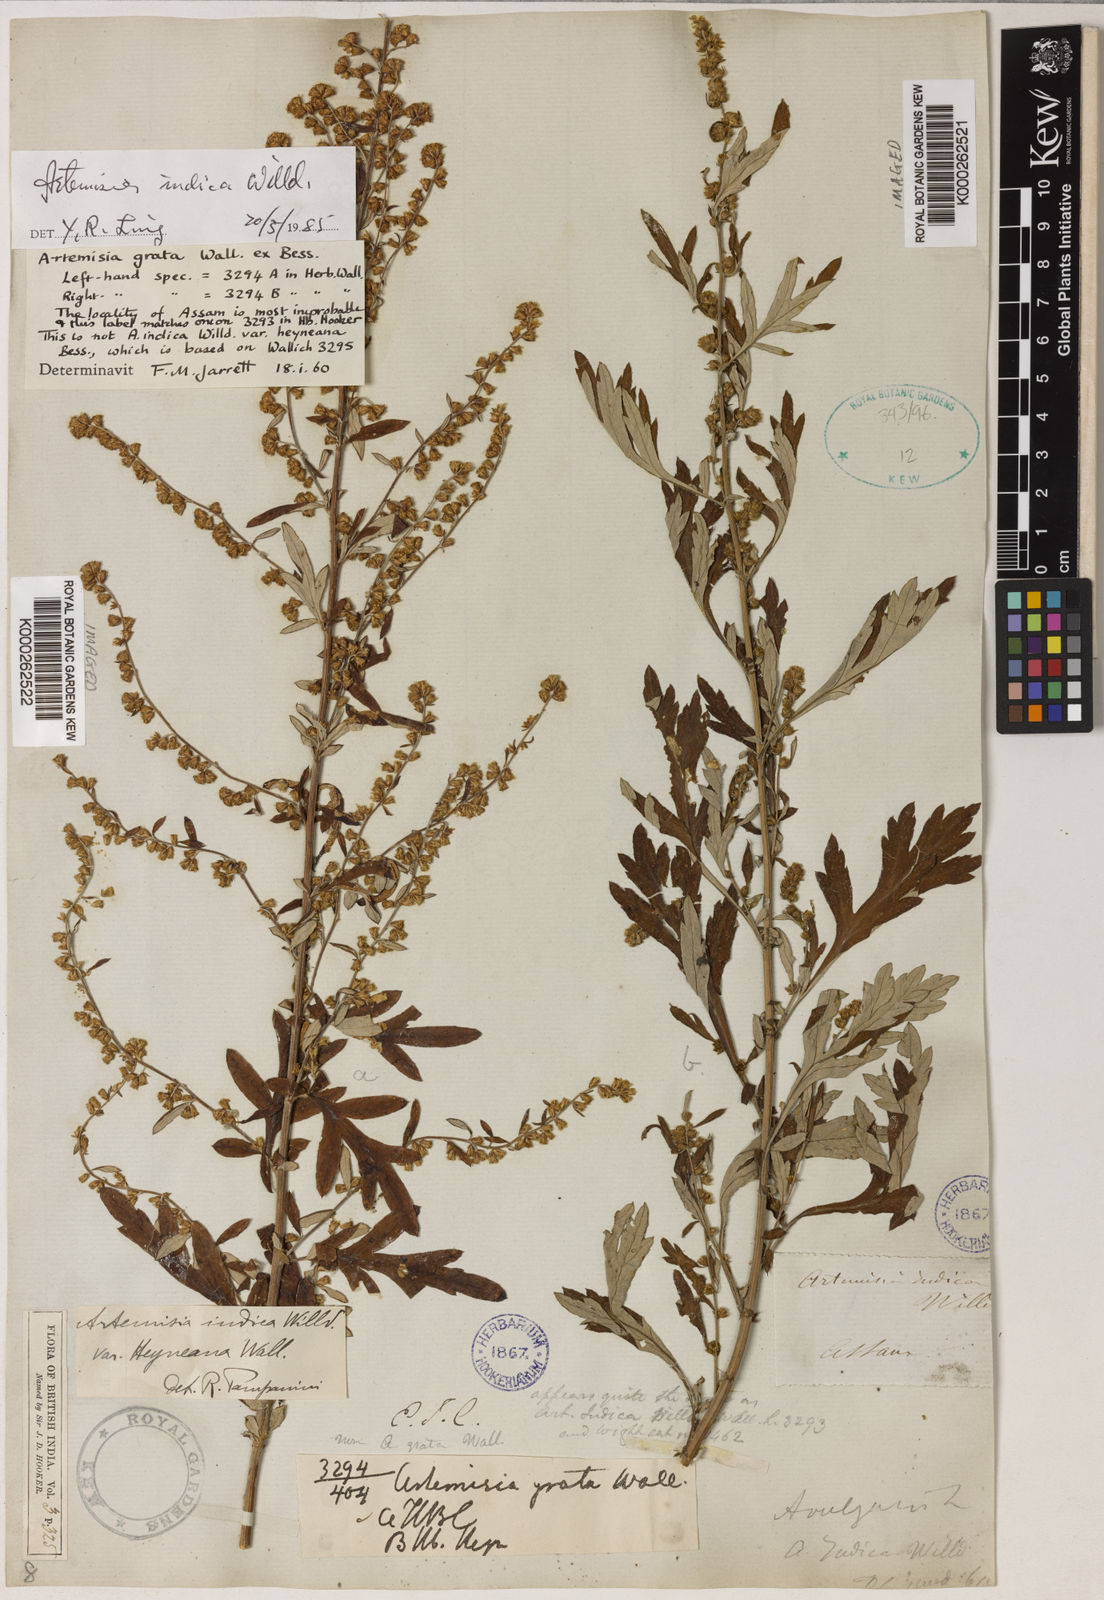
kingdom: Plantae
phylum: Tracheophyta
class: Magnoliopsida
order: Asterales
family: Asteraceae
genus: Artemisia
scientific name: Artemisia indica
